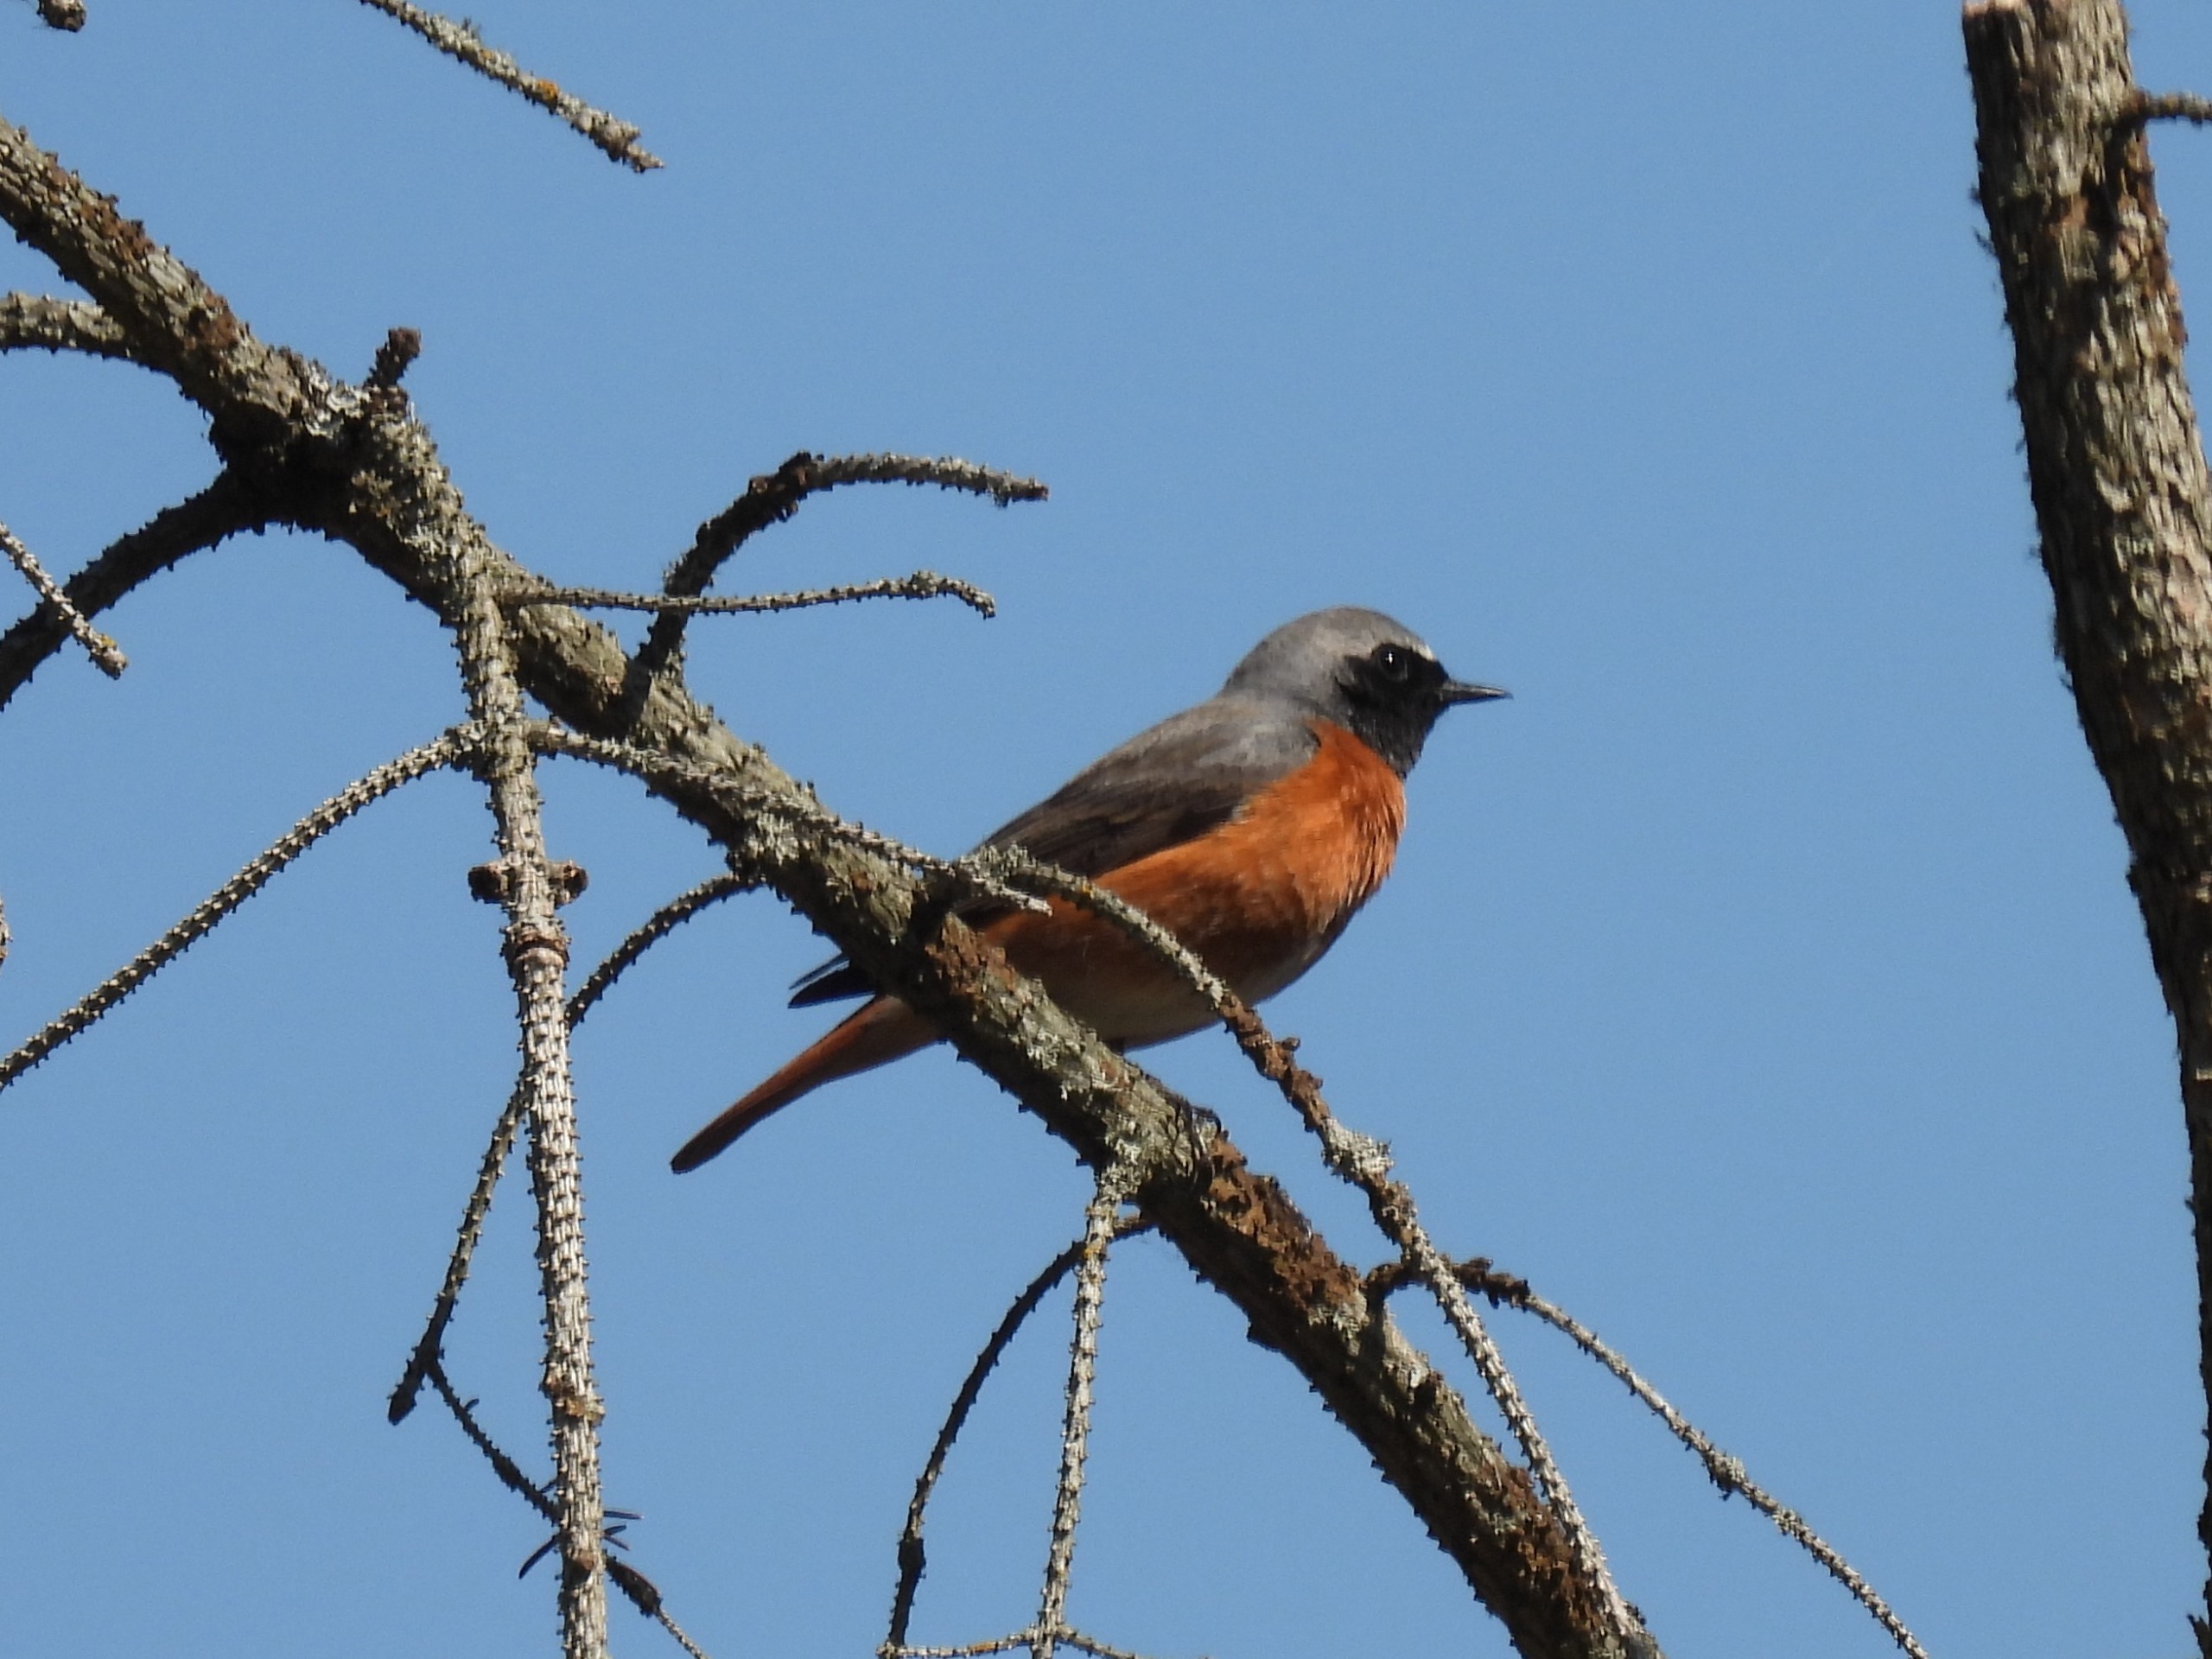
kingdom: Animalia
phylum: Chordata
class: Aves
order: Passeriformes
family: Muscicapidae
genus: Phoenicurus
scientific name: Phoenicurus phoenicurus
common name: Rødstjert
